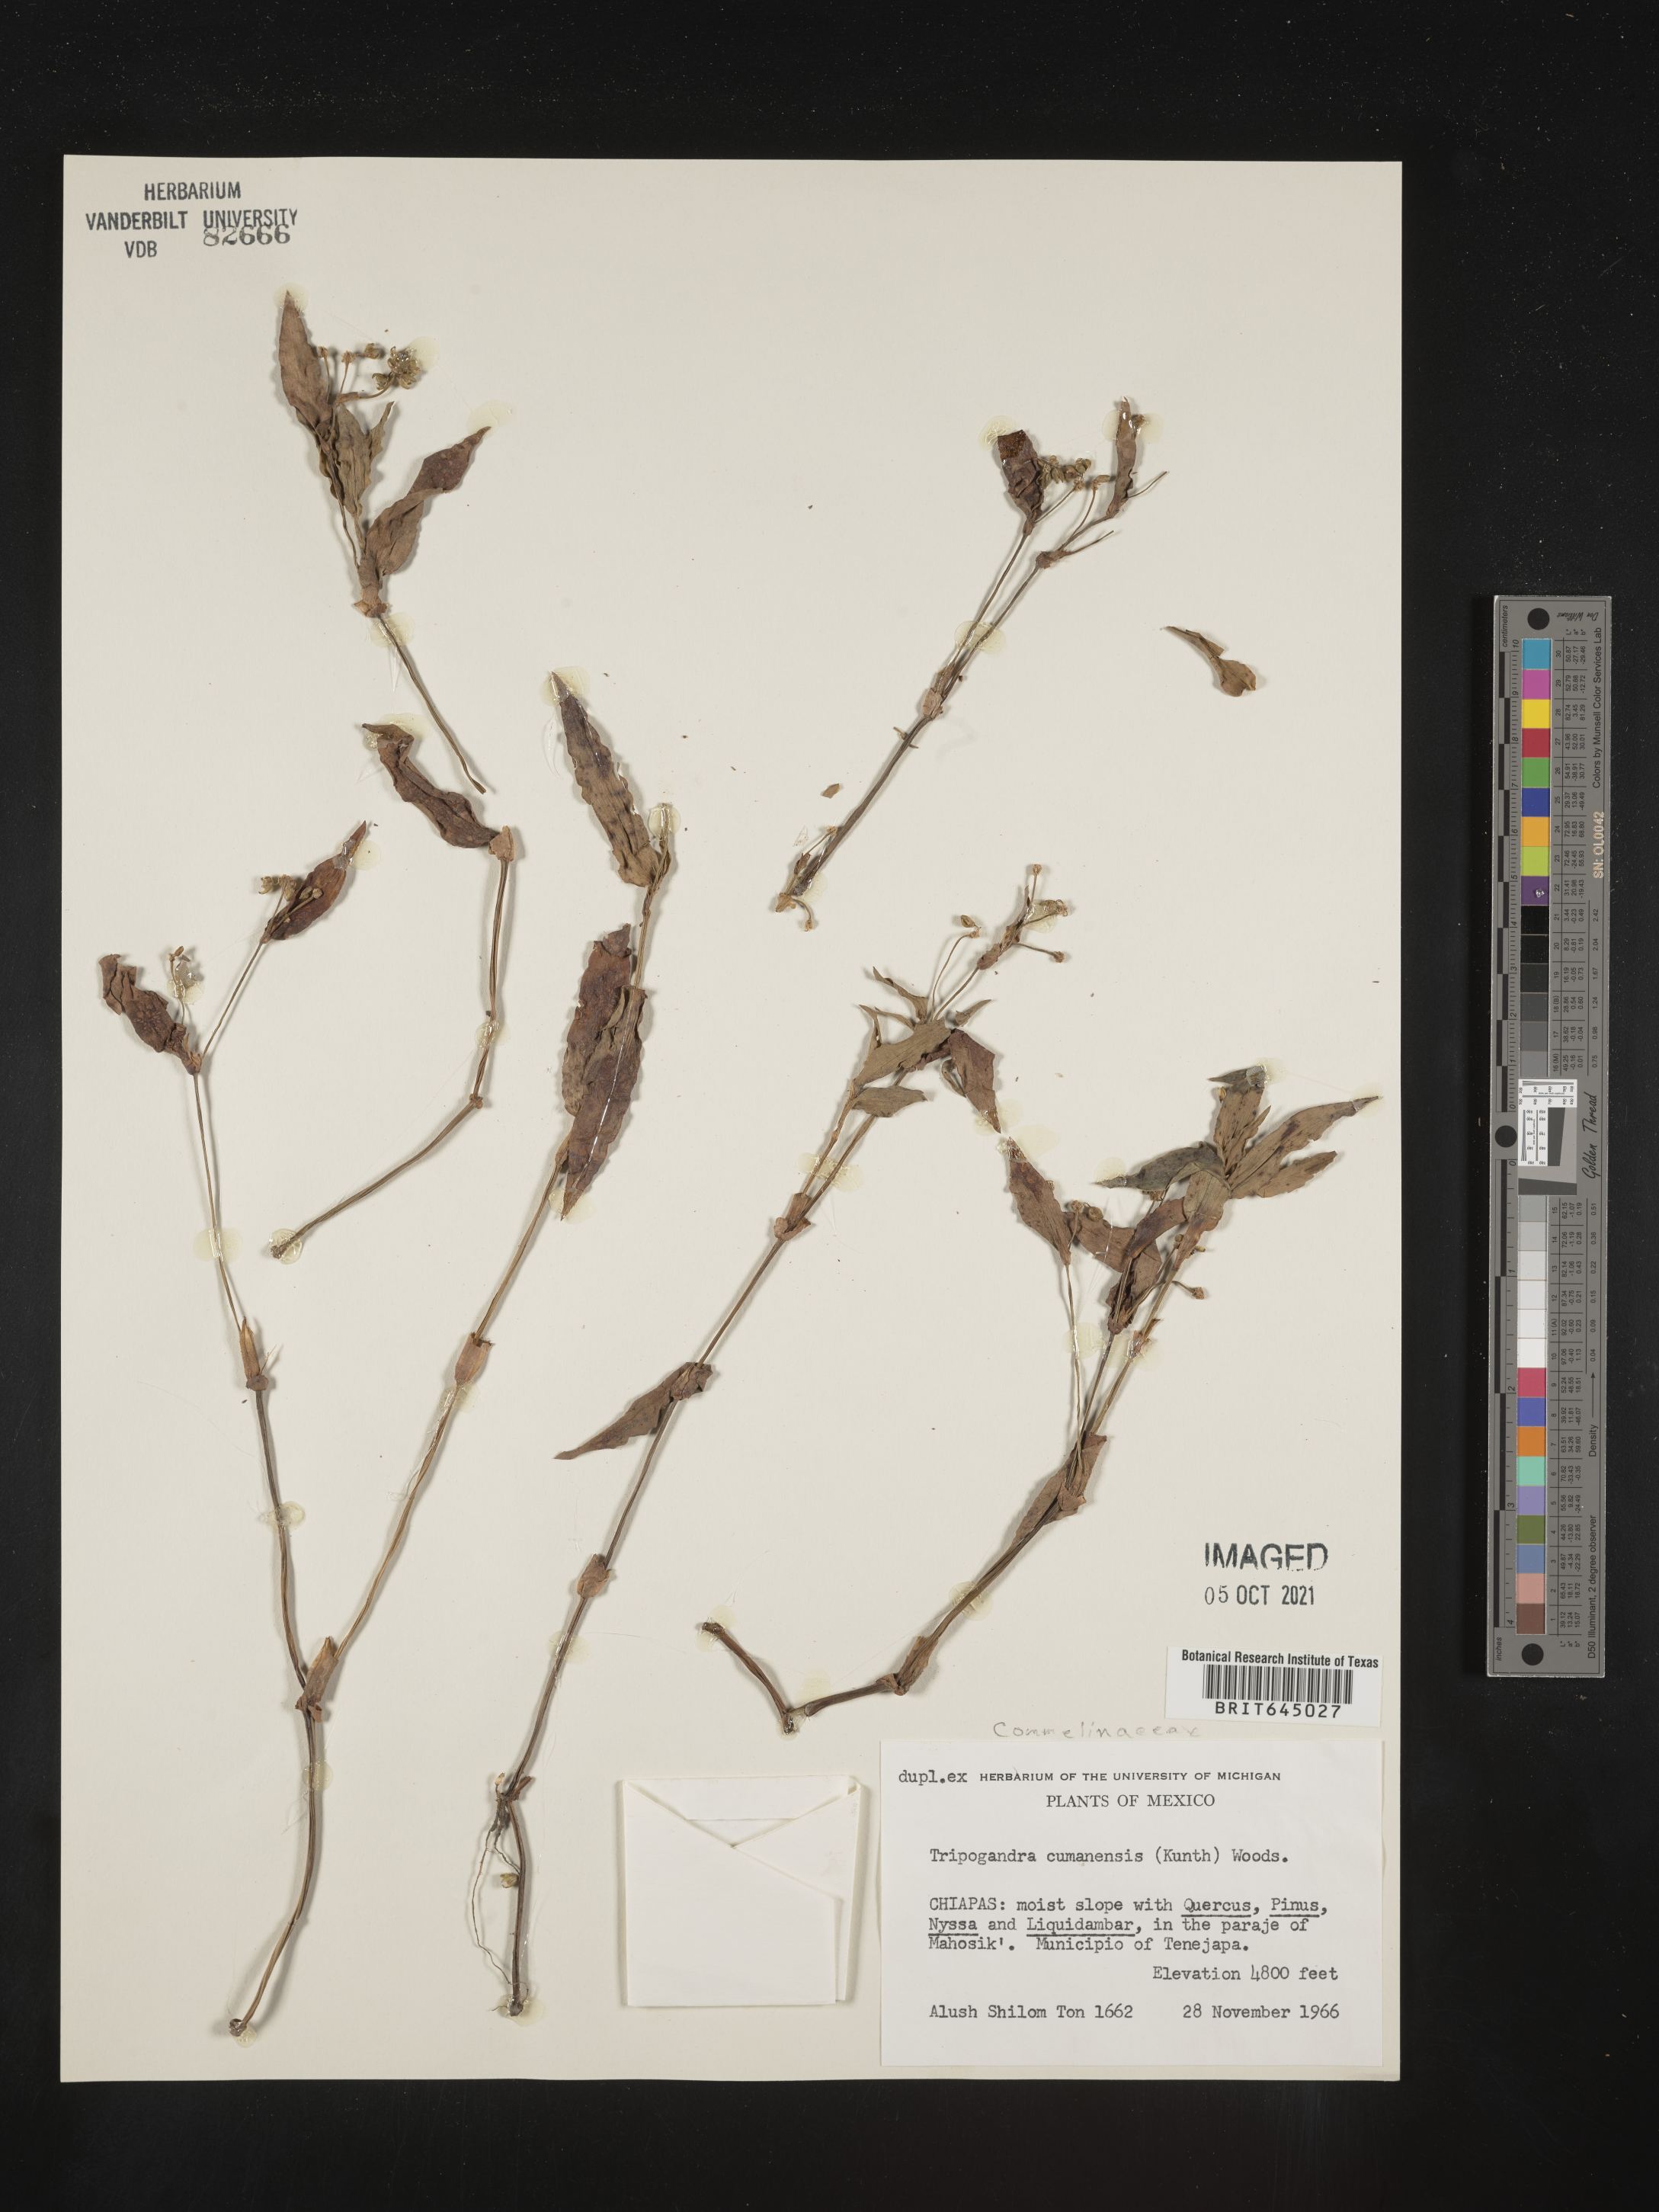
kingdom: Plantae
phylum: Tracheophyta
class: Liliopsida
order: Commelinales
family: Commelinaceae
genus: Callisia
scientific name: Callisia
